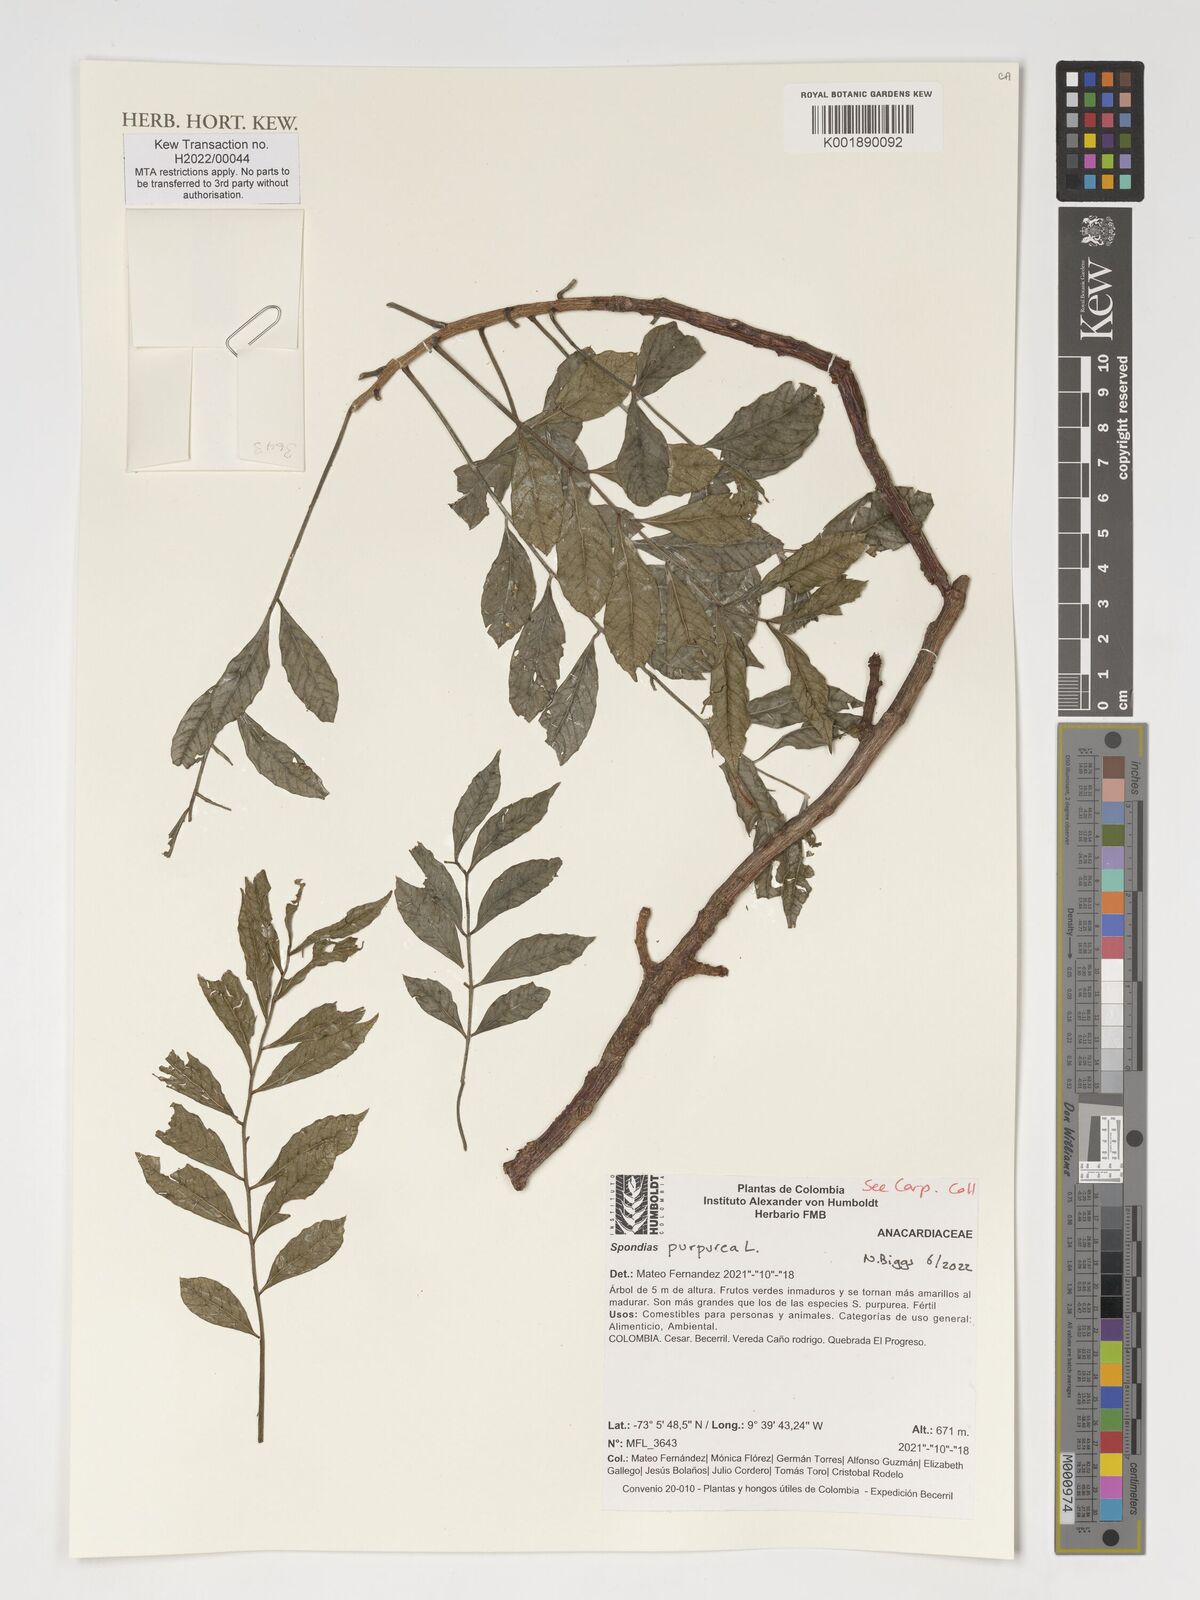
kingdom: Plantae
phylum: Tracheophyta
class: Magnoliopsida
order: Sapindales
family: Anacardiaceae
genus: Spondias
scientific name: Spondias purpurea
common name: Purple mombin
